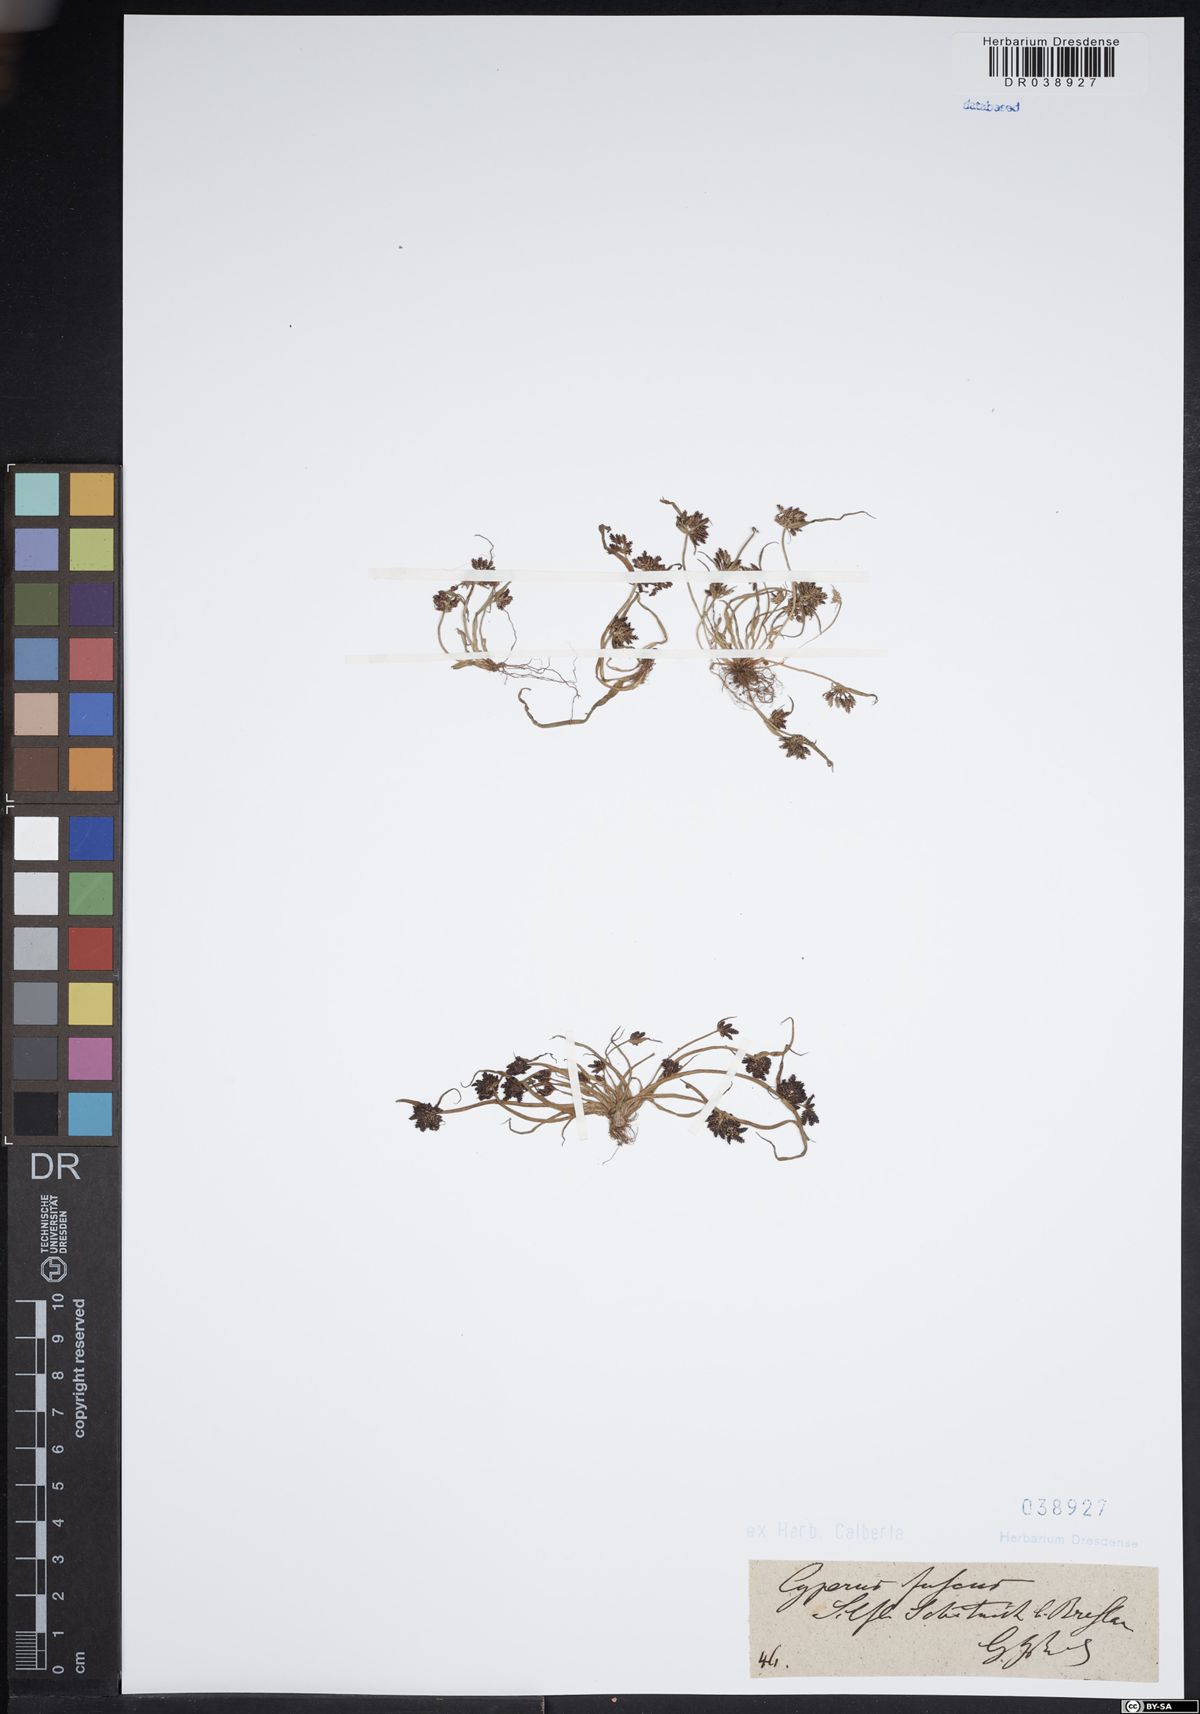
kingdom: Plantae
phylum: Tracheophyta
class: Liliopsida
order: Poales
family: Cyperaceae
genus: Cyperus
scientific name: Cyperus fuscus
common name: Brown galingale
